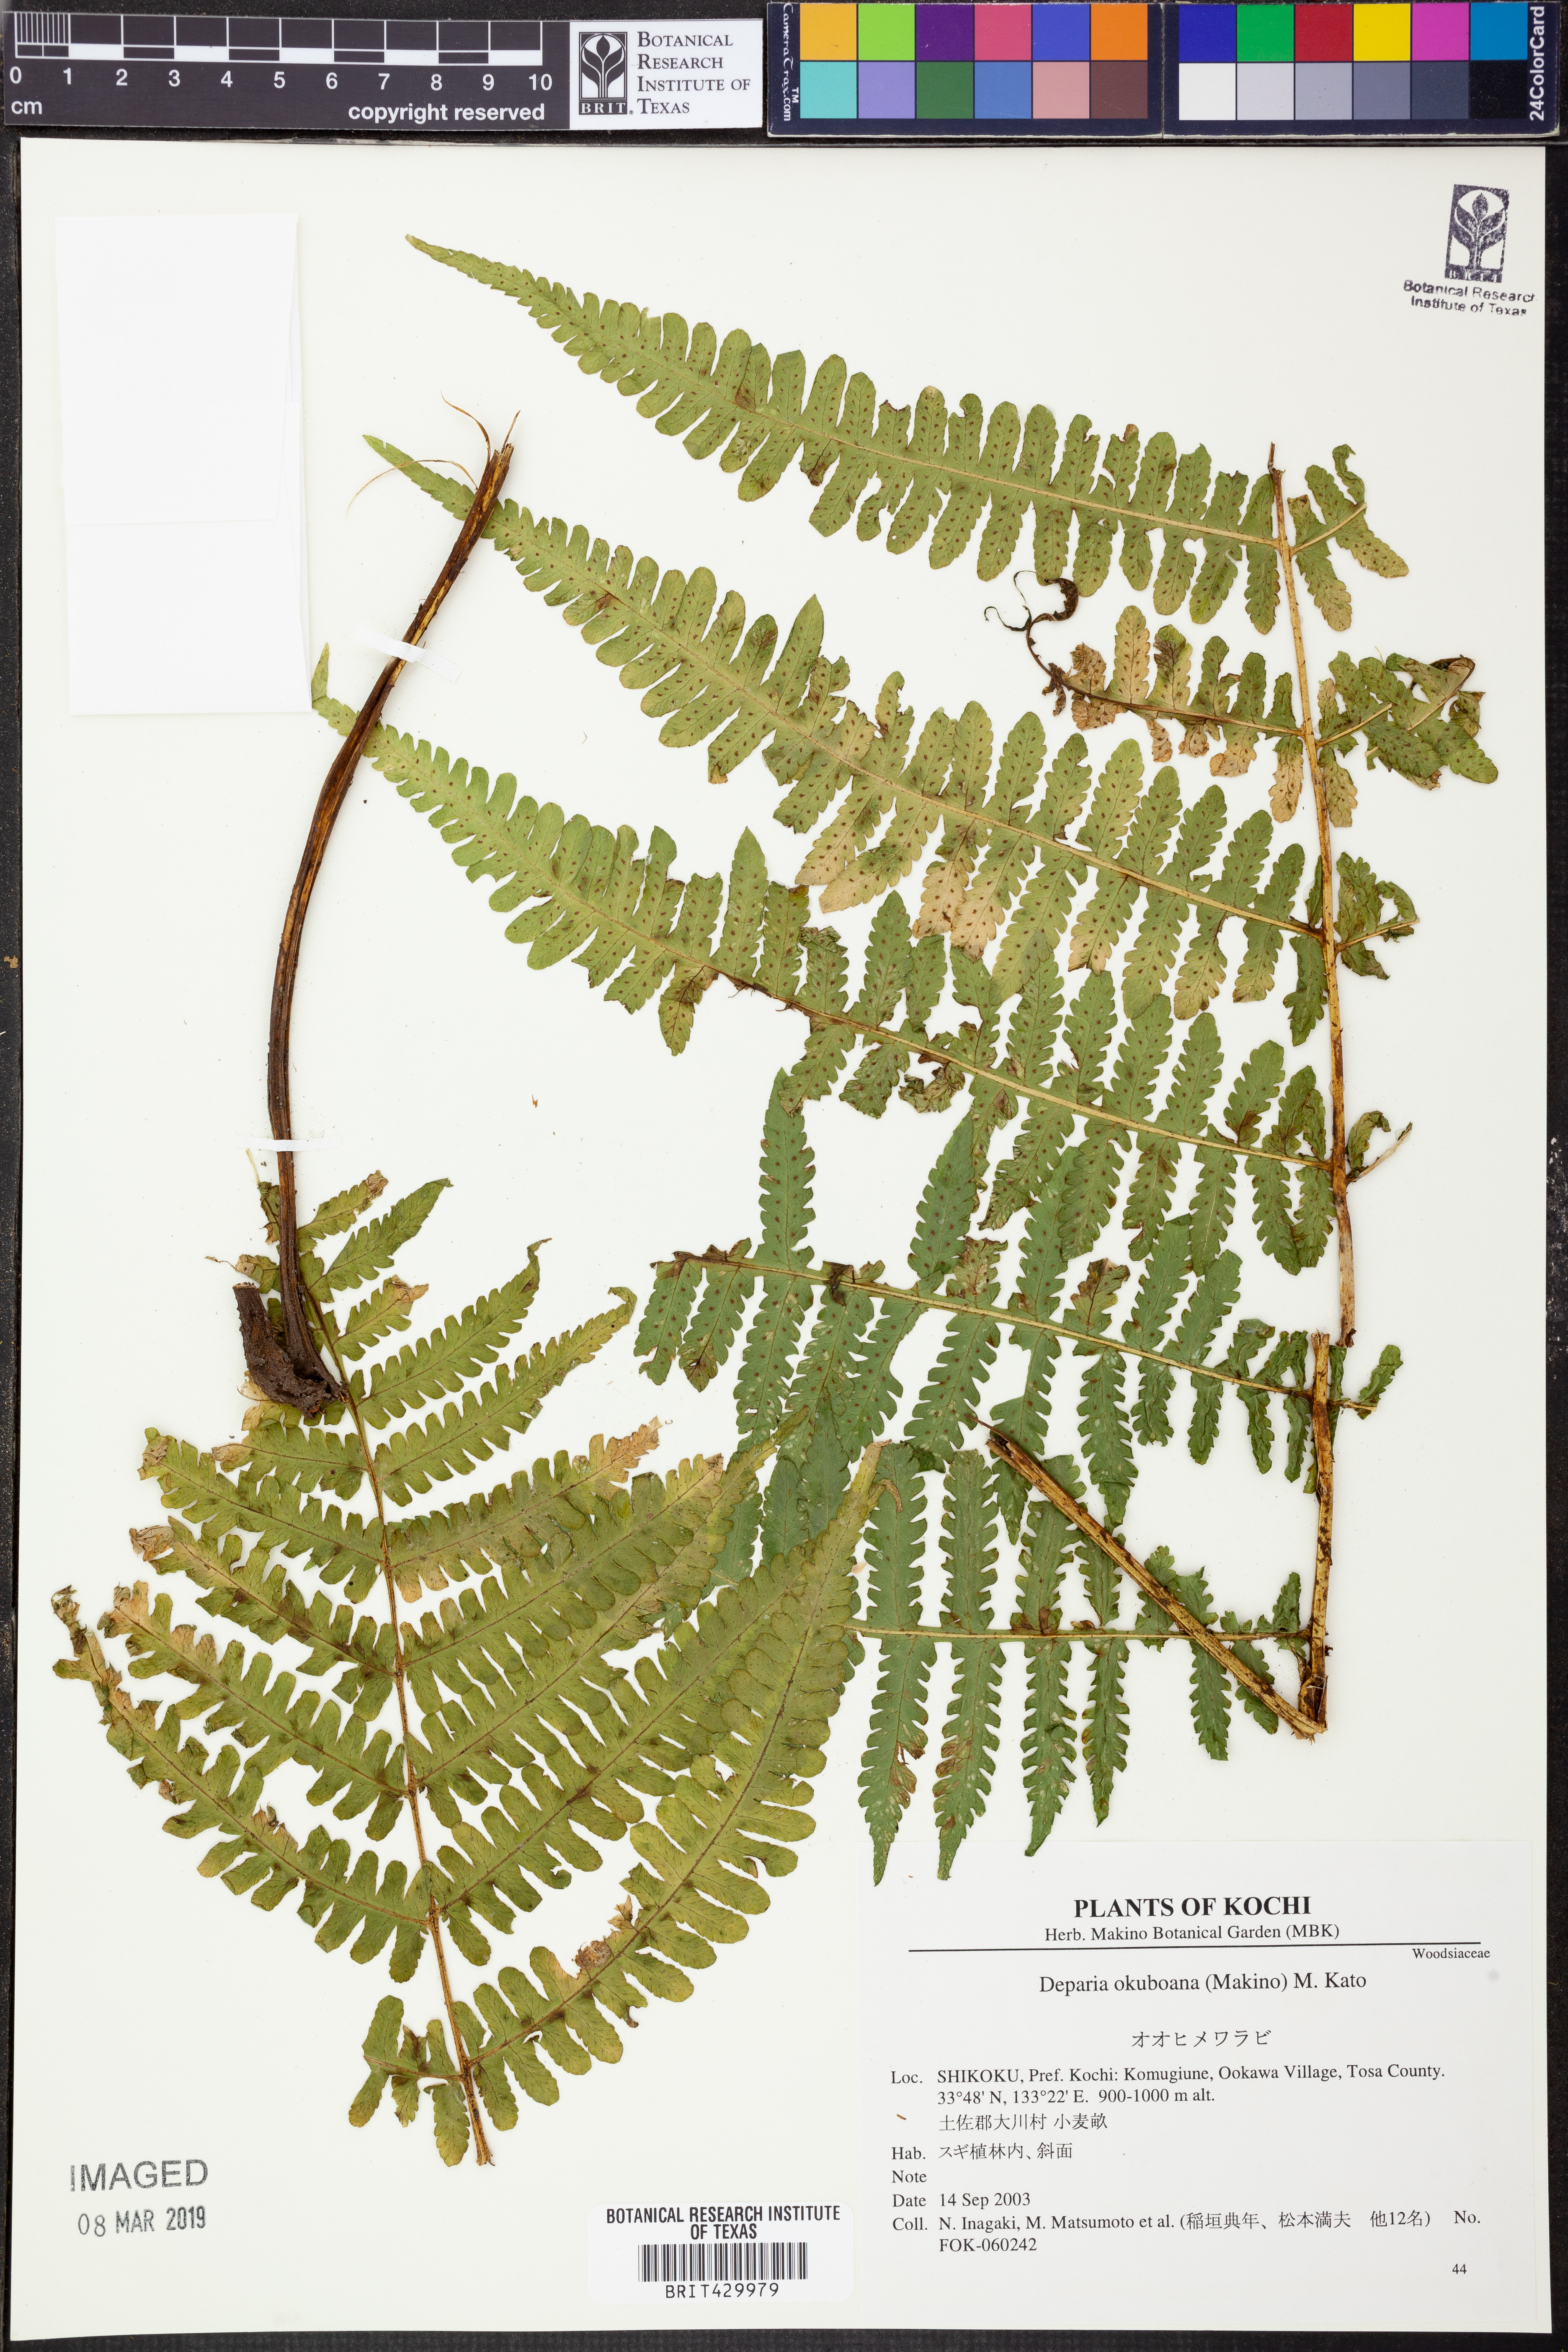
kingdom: Plantae
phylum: Tracheophyta
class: Polypodiopsida
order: Polypodiales
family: Athyriaceae
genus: Deparia
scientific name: Deparia okuboana
